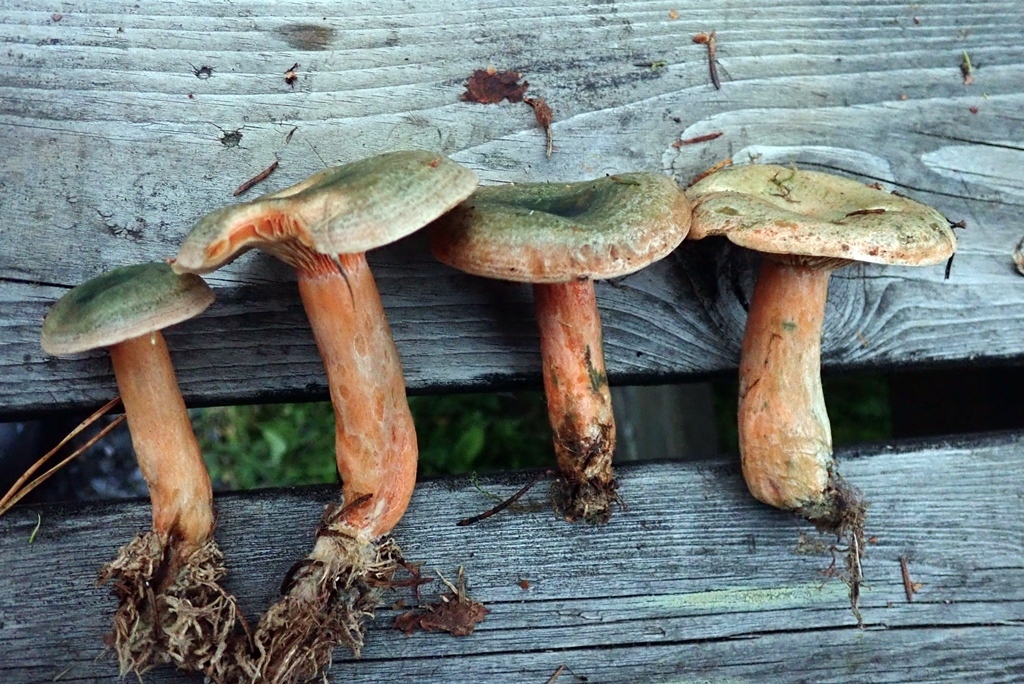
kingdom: Fungi
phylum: Basidiomycota
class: Agaricomycetes
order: Russulales
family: Russulaceae
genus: Lactarius
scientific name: Lactarius fennoscandicus
